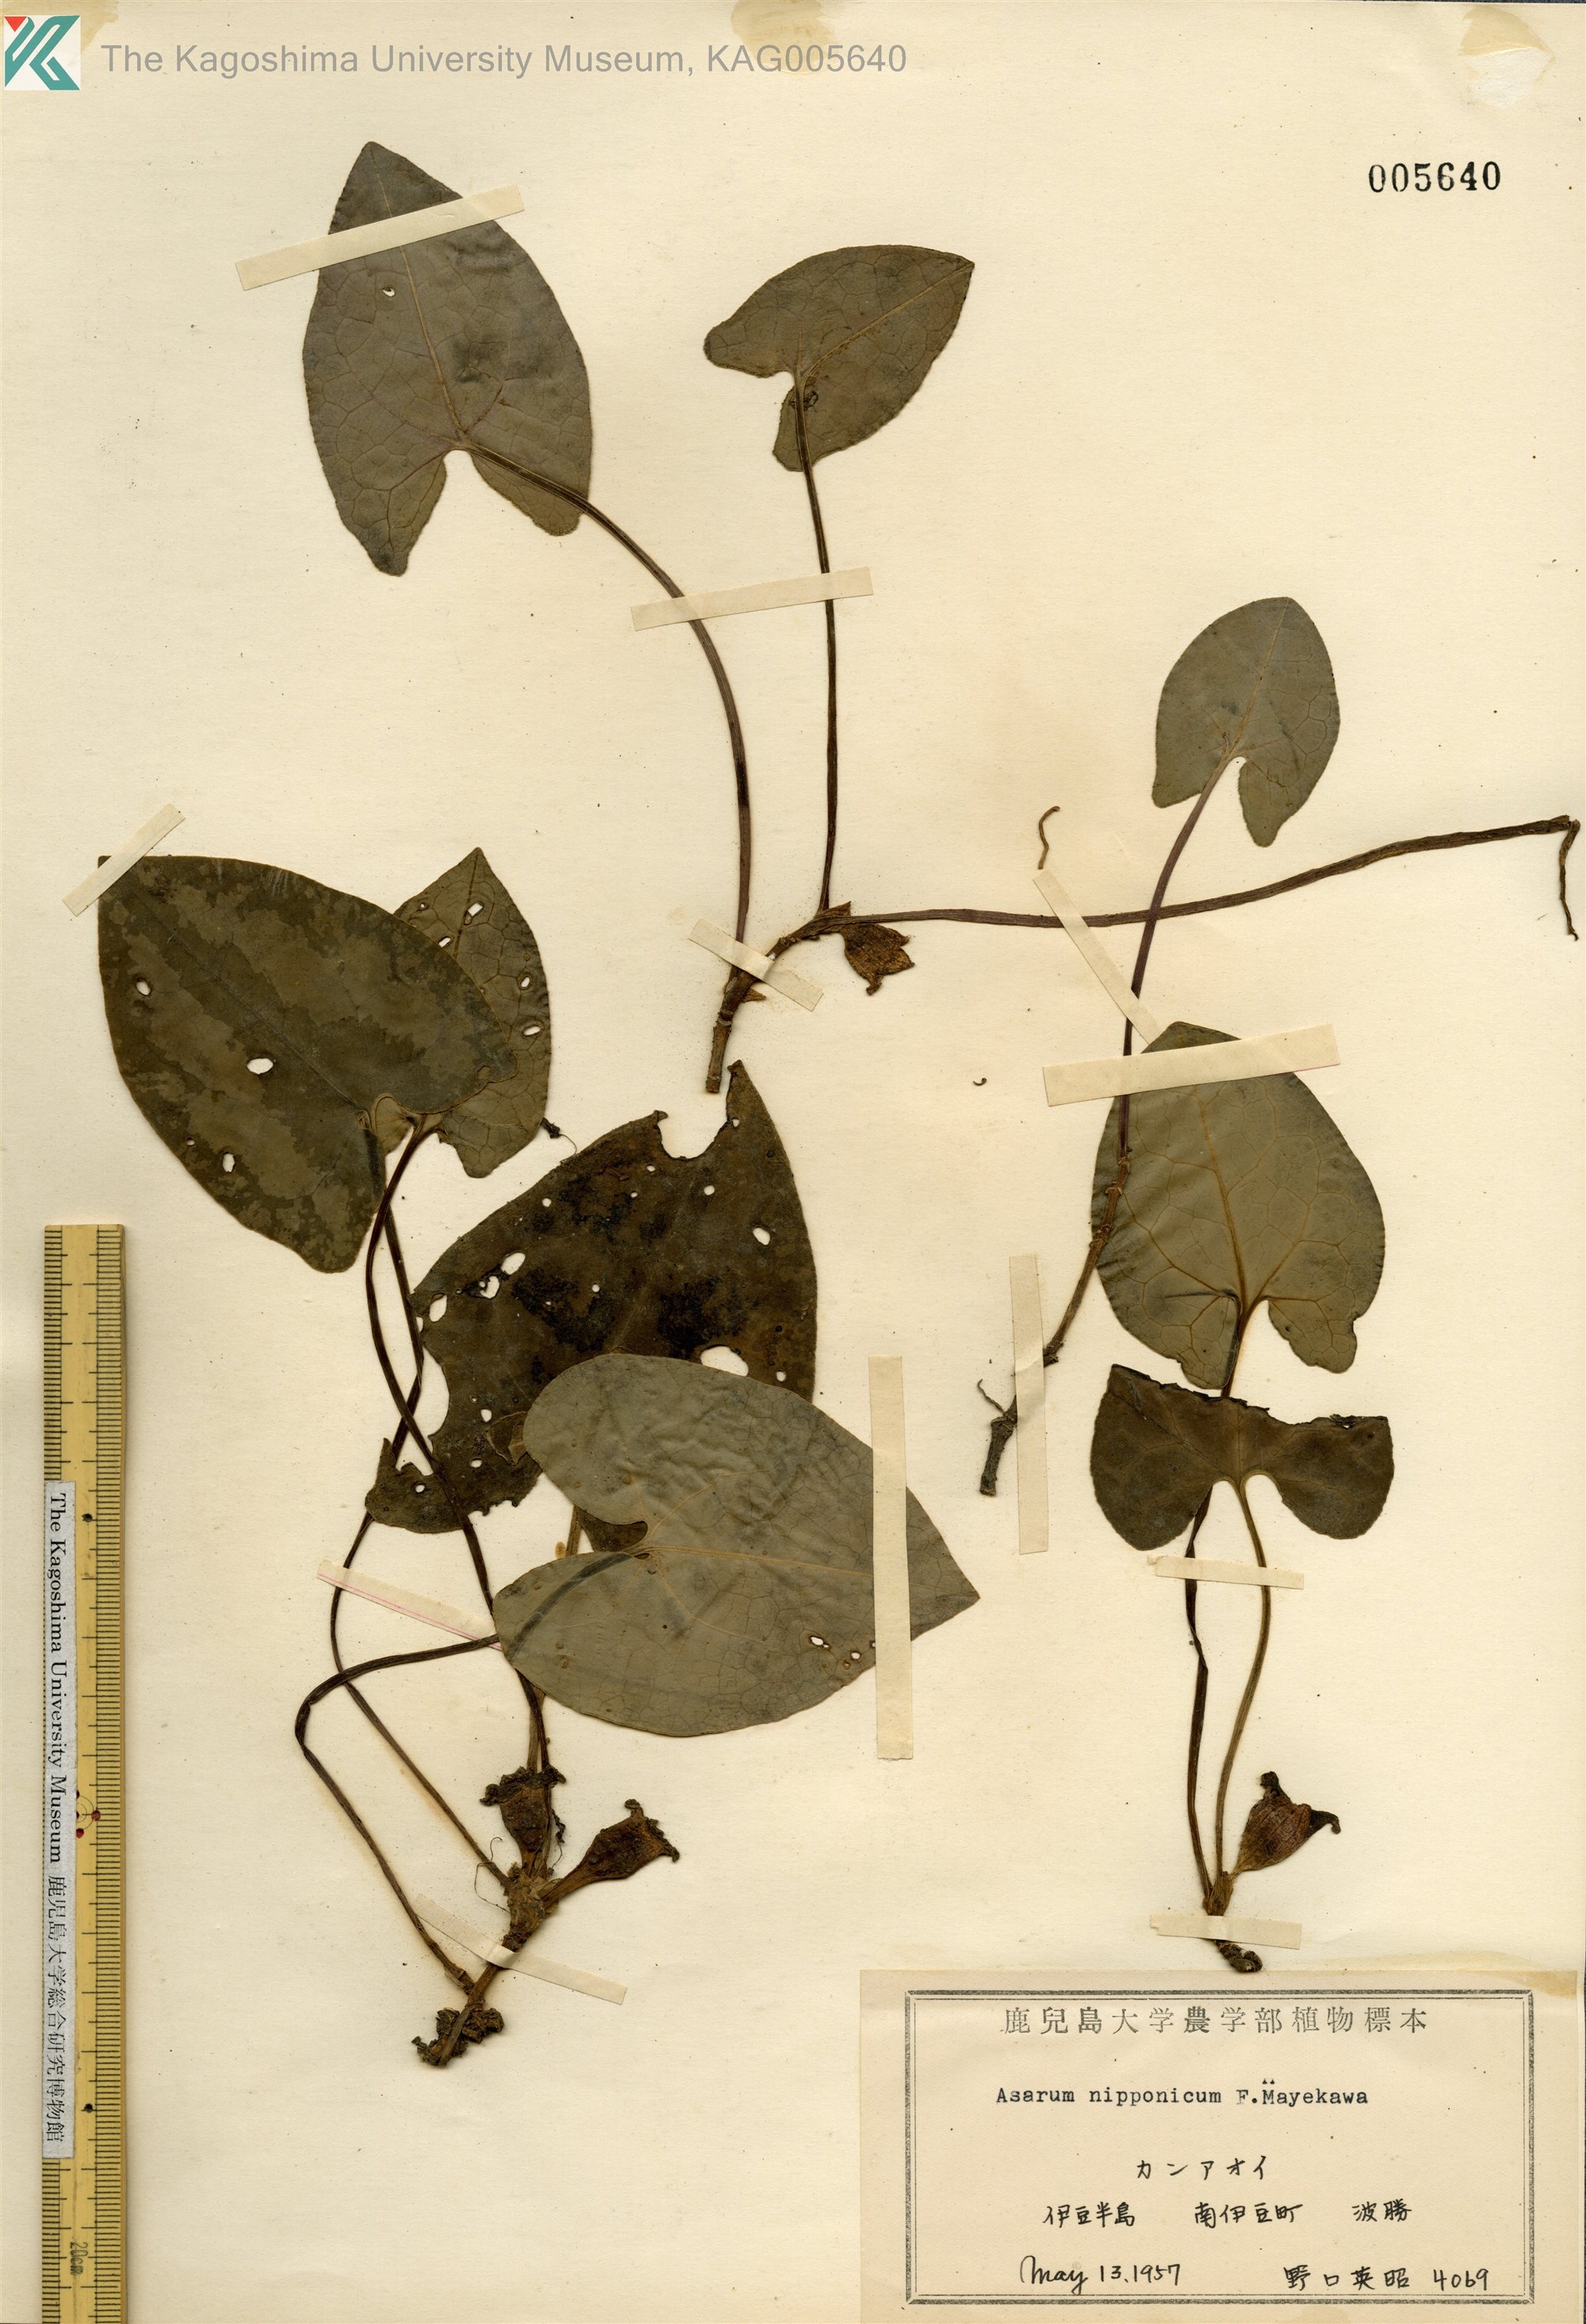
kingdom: Plantae
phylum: Tracheophyta
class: Magnoliopsida
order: Piperales
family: Aristolochiaceae
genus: Asarum
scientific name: Asarum nipponicum
